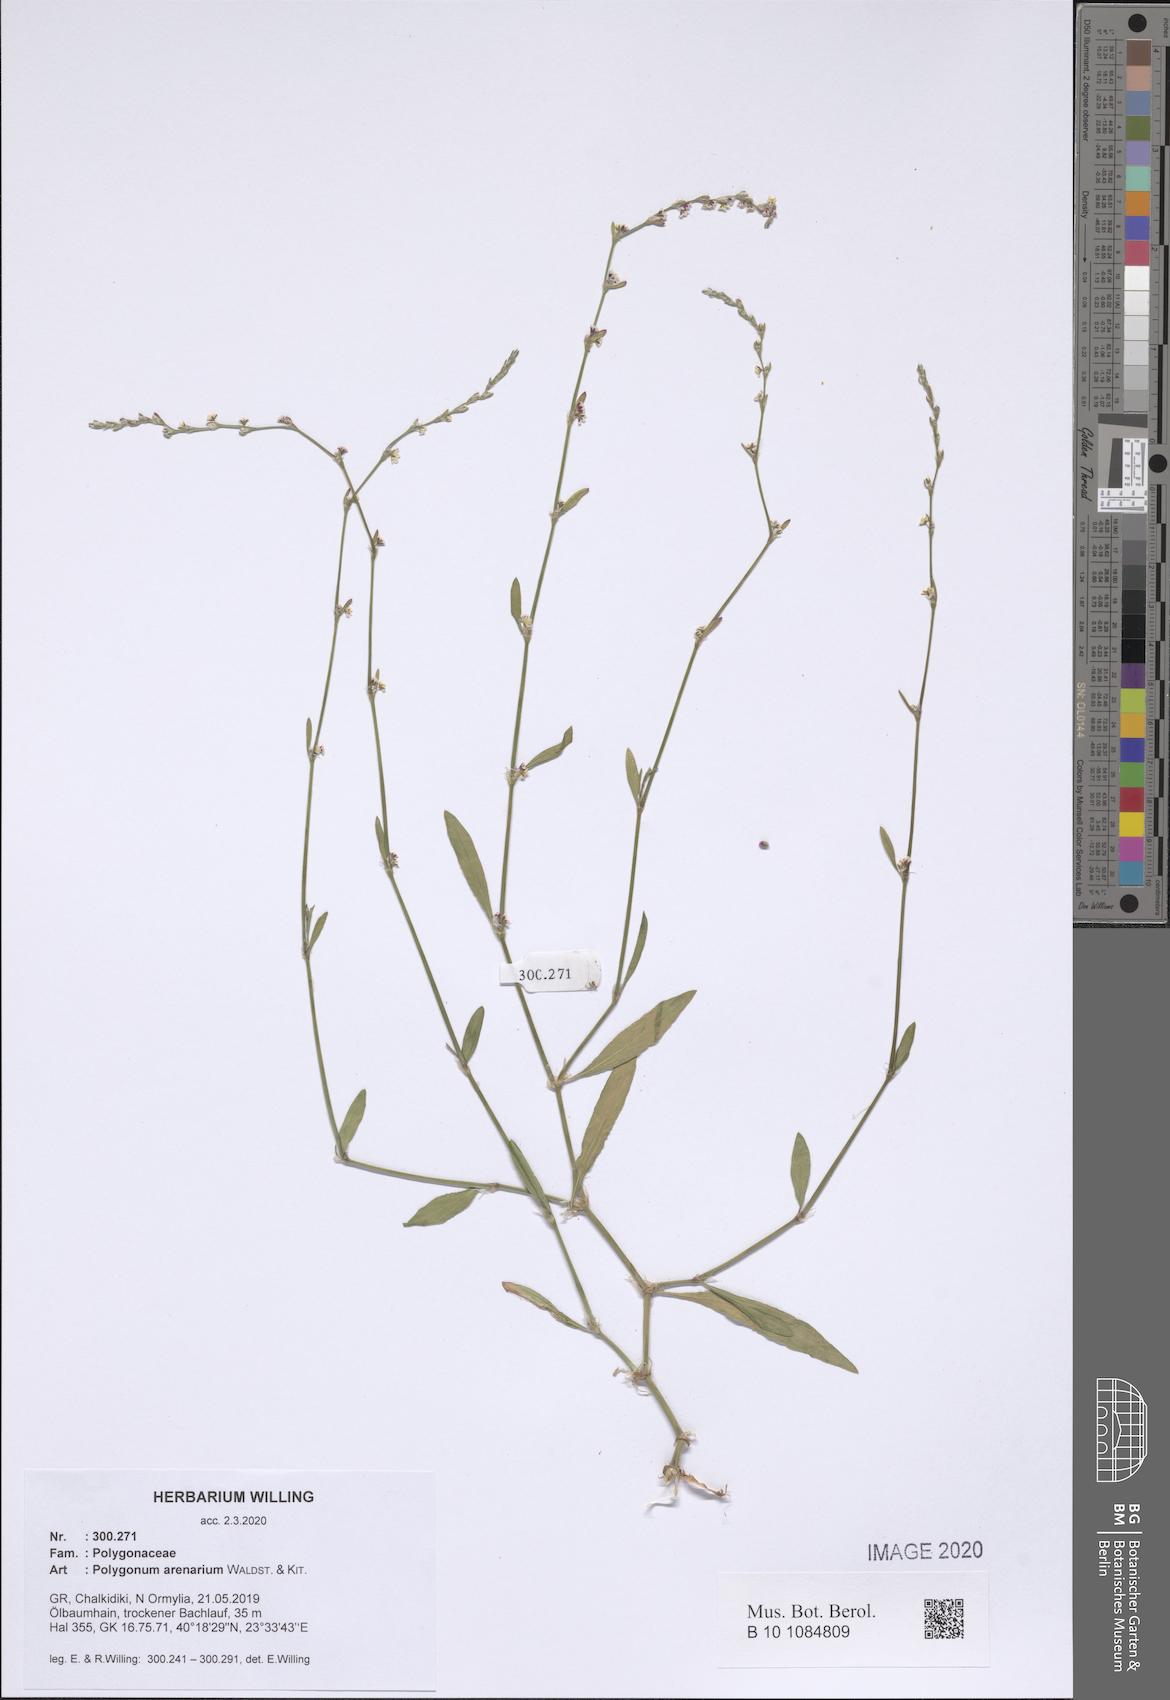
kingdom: Plantae
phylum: Tracheophyta
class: Magnoliopsida
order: Caryophyllales
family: Polygonaceae
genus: Polygonum
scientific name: Polygonum arenarium
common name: Lesser red-knotgrass
